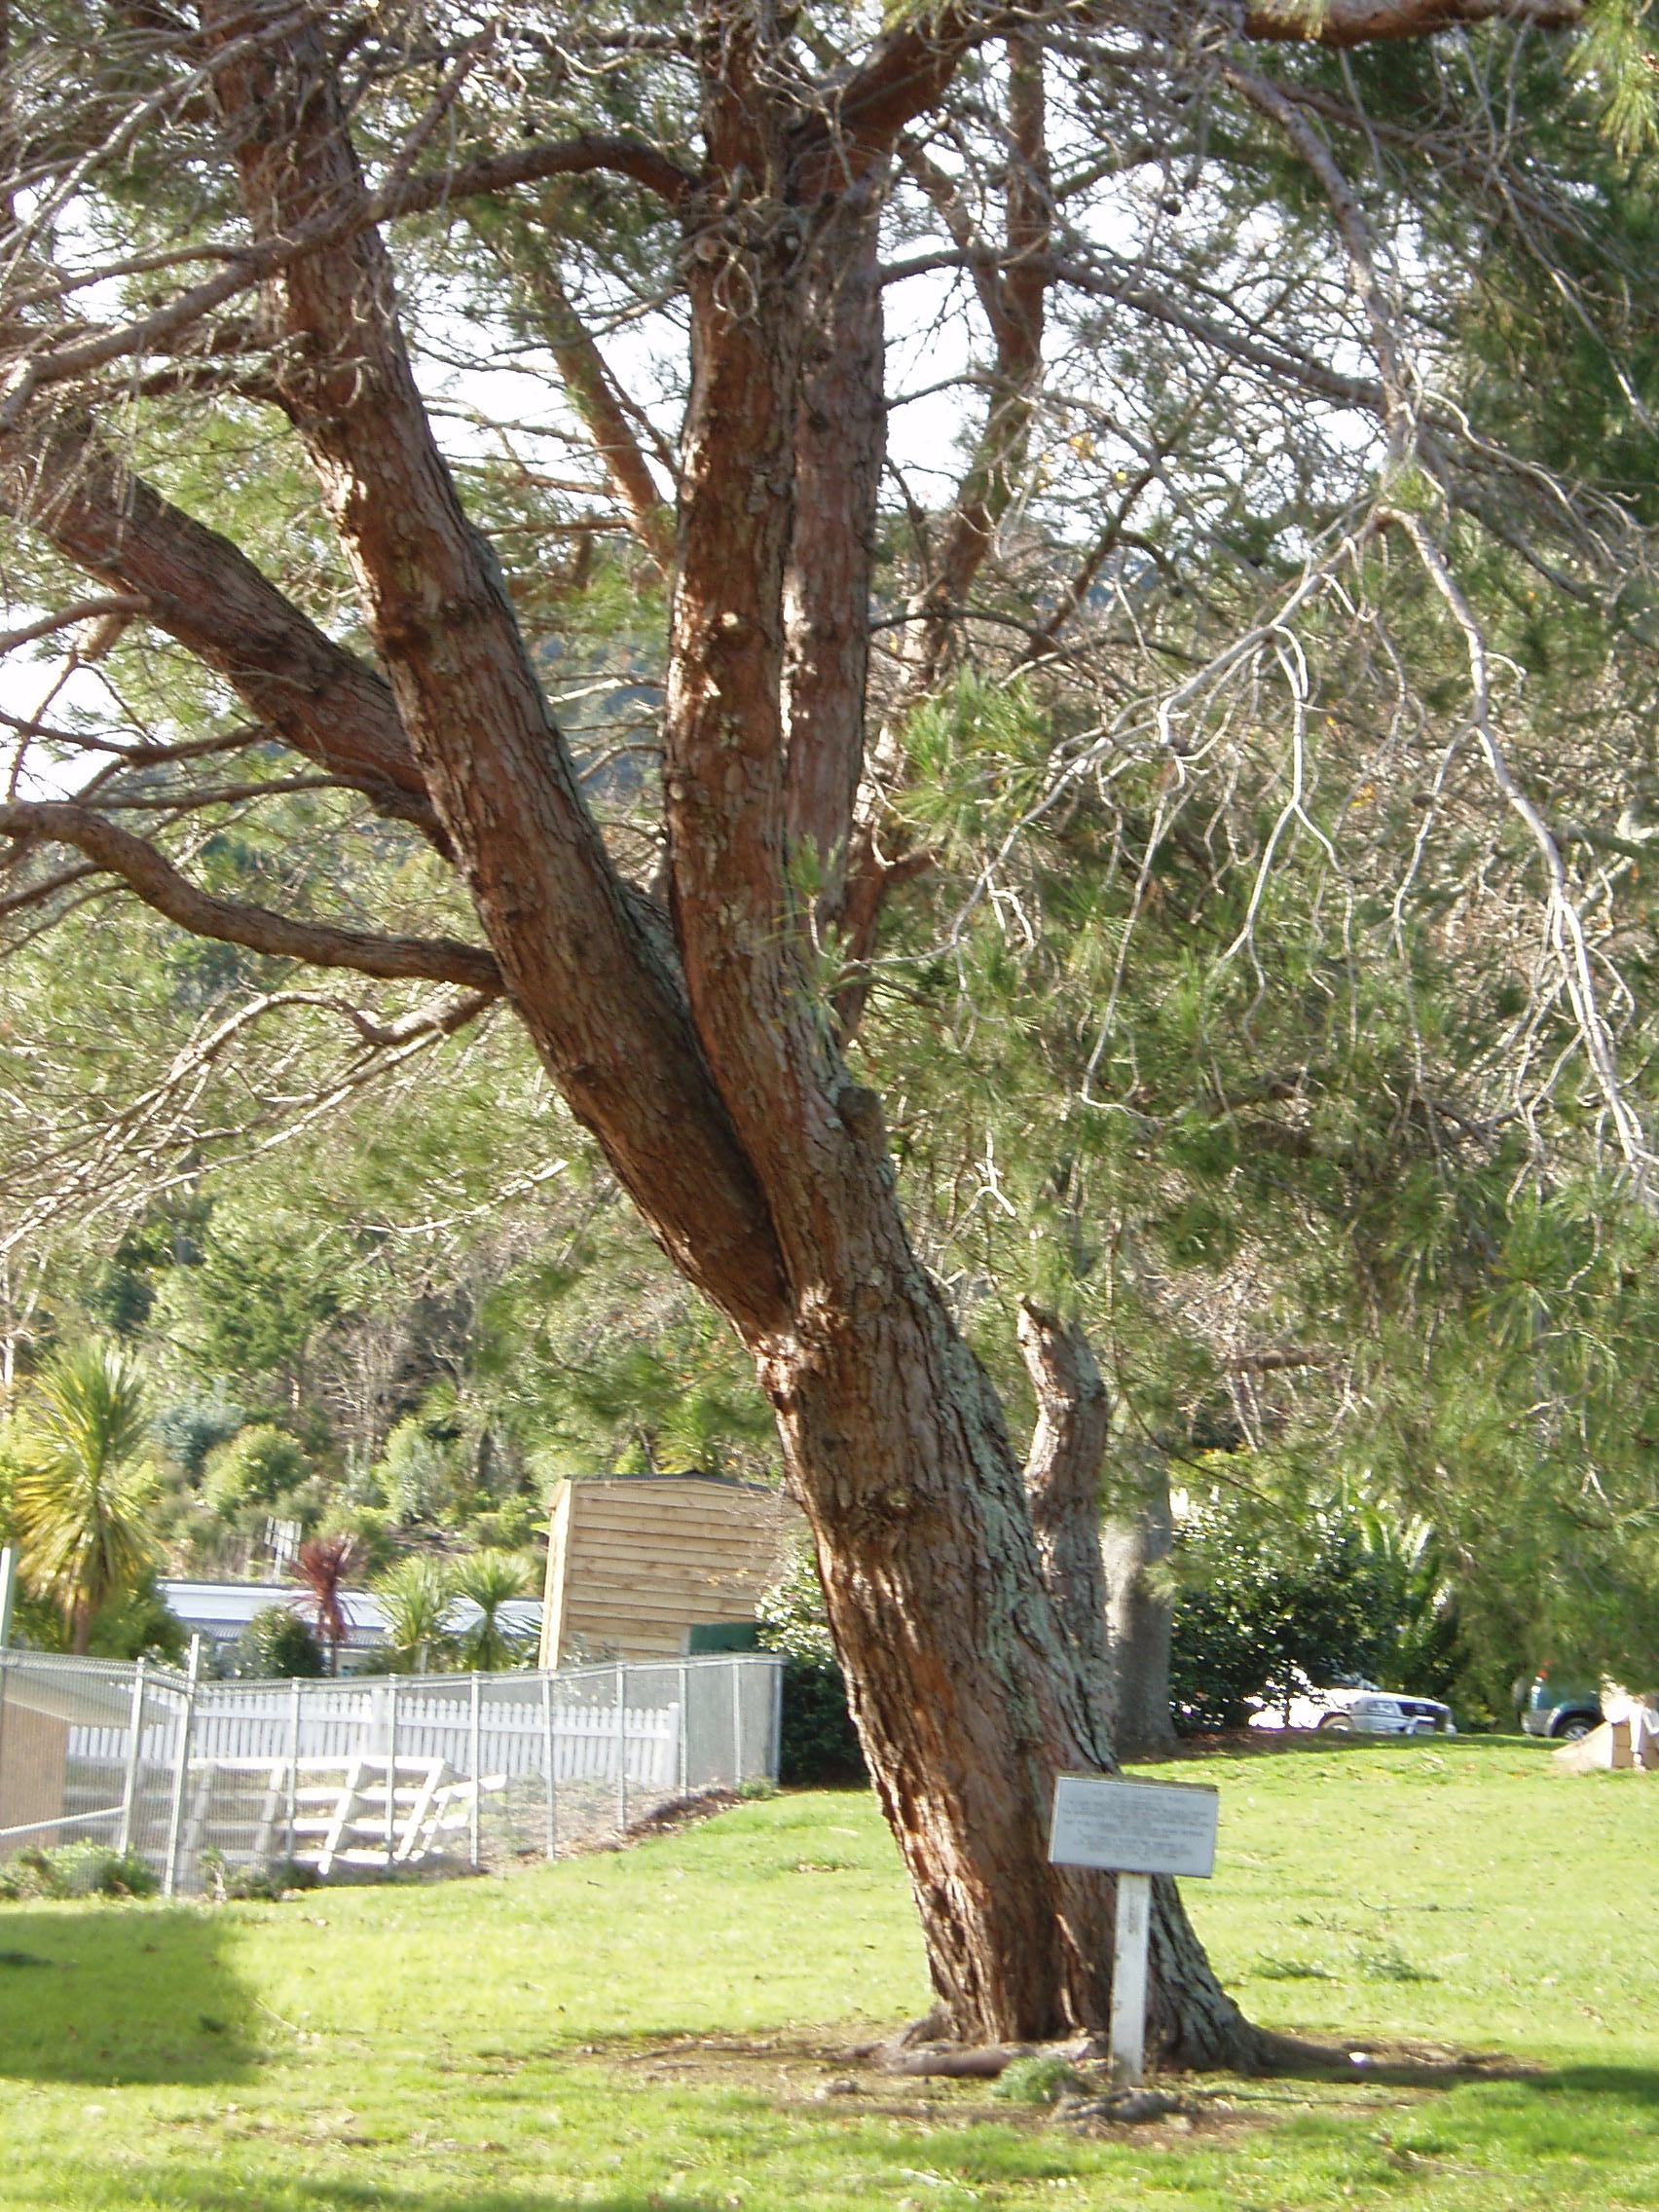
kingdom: Plantae
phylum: Tracheophyta
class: Pinopsida
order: Pinales
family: Pinaceae
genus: Pinus
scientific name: Pinus halepensis
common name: Aleppo pine
